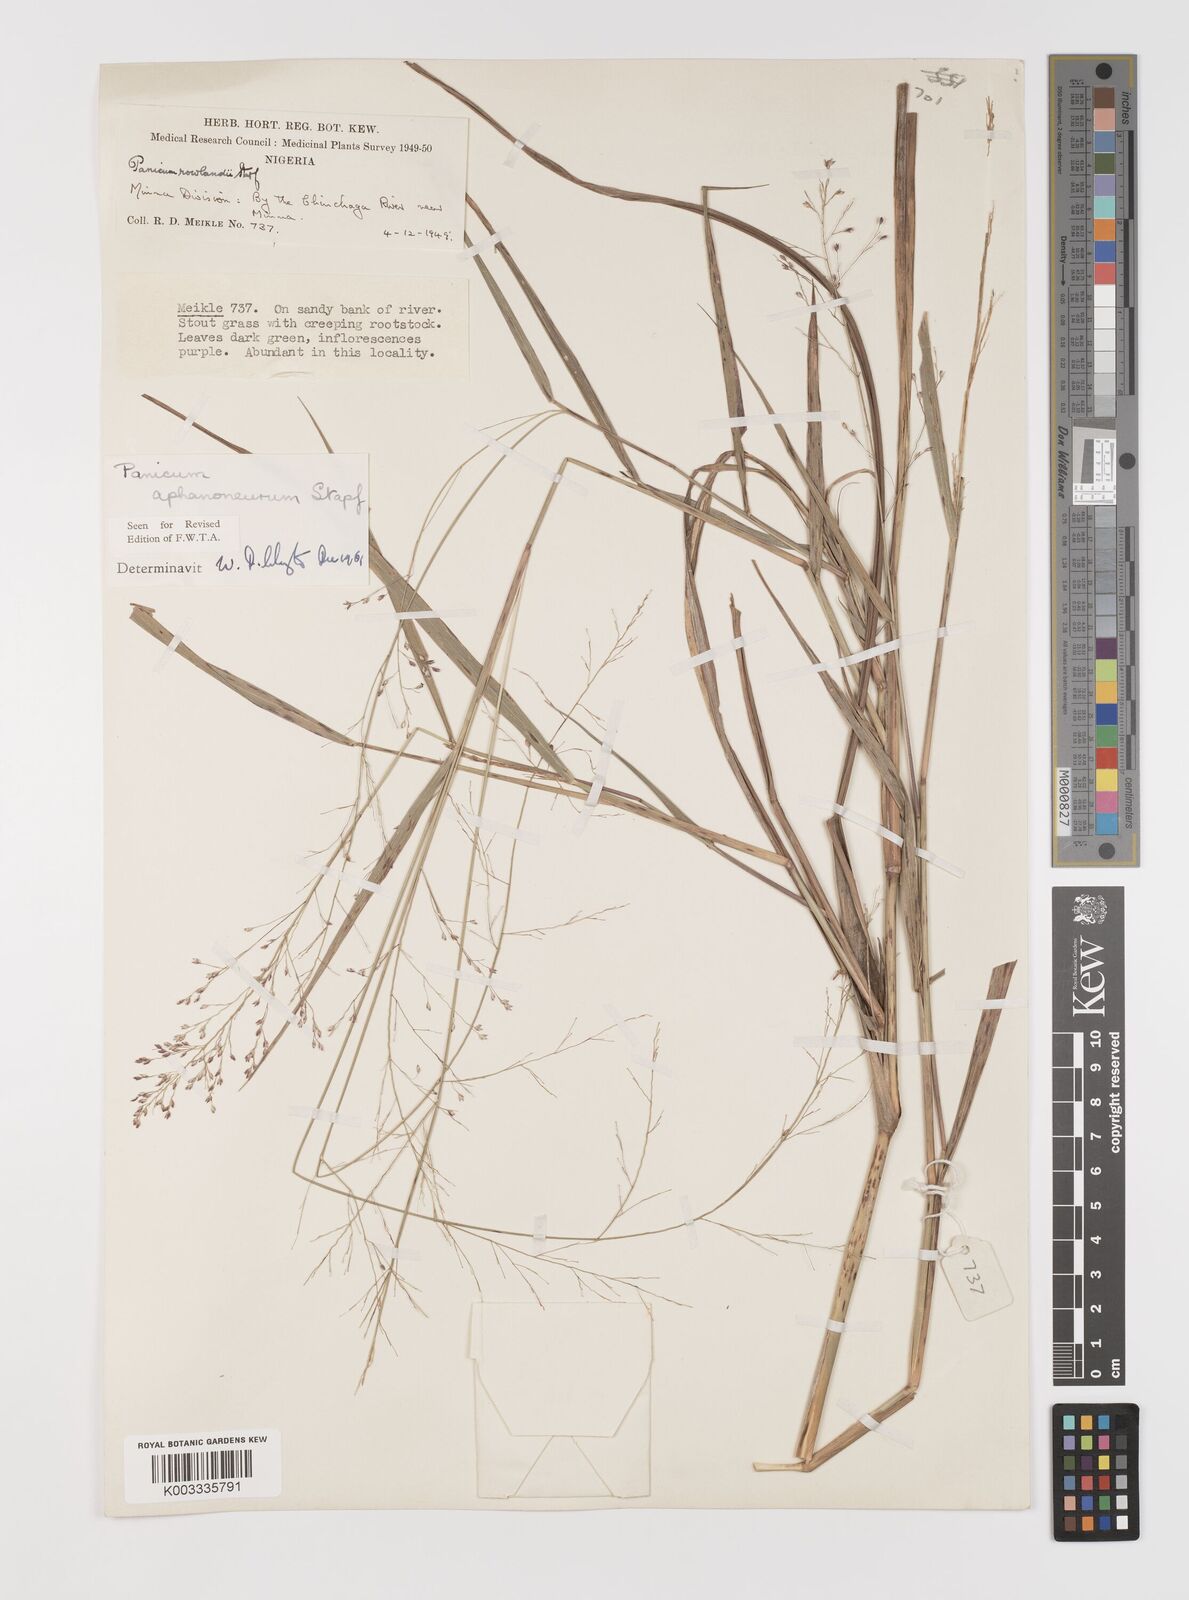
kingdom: Plantae
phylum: Tracheophyta
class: Liliopsida
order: Poales
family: Poaceae
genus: Panicum
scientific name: Panicum fluviicola
